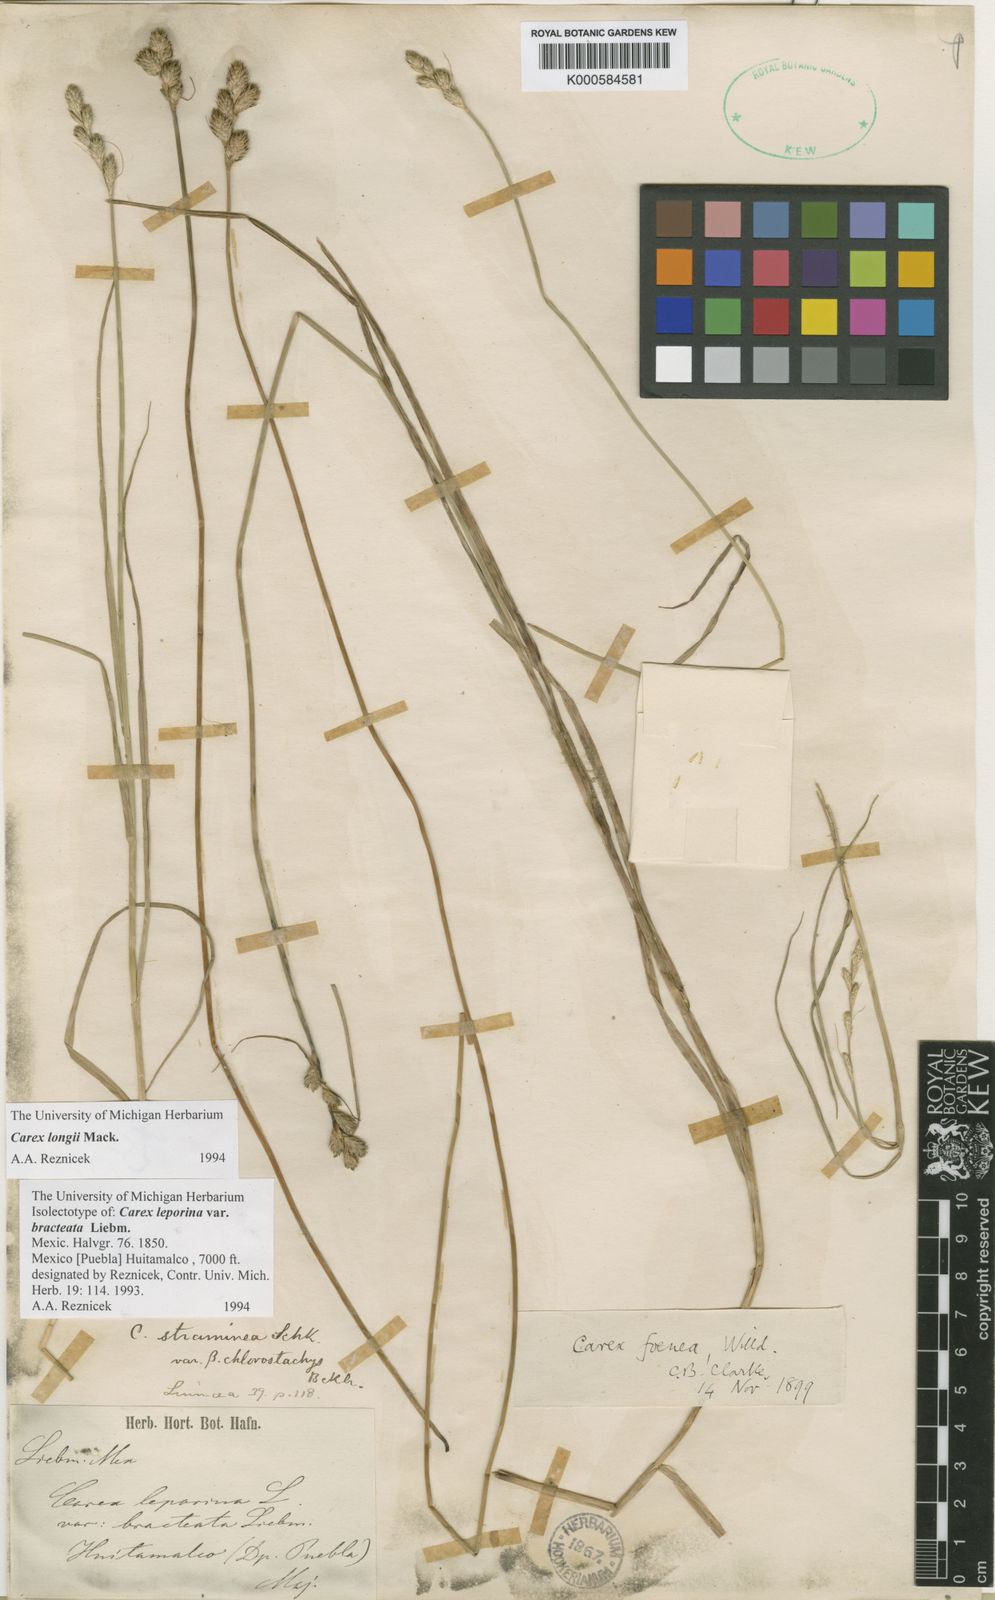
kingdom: Plantae
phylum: Tracheophyta
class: Liliopsida
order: Poales
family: Cyperaceae
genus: Carex
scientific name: Carex longii
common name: Long's sedge
